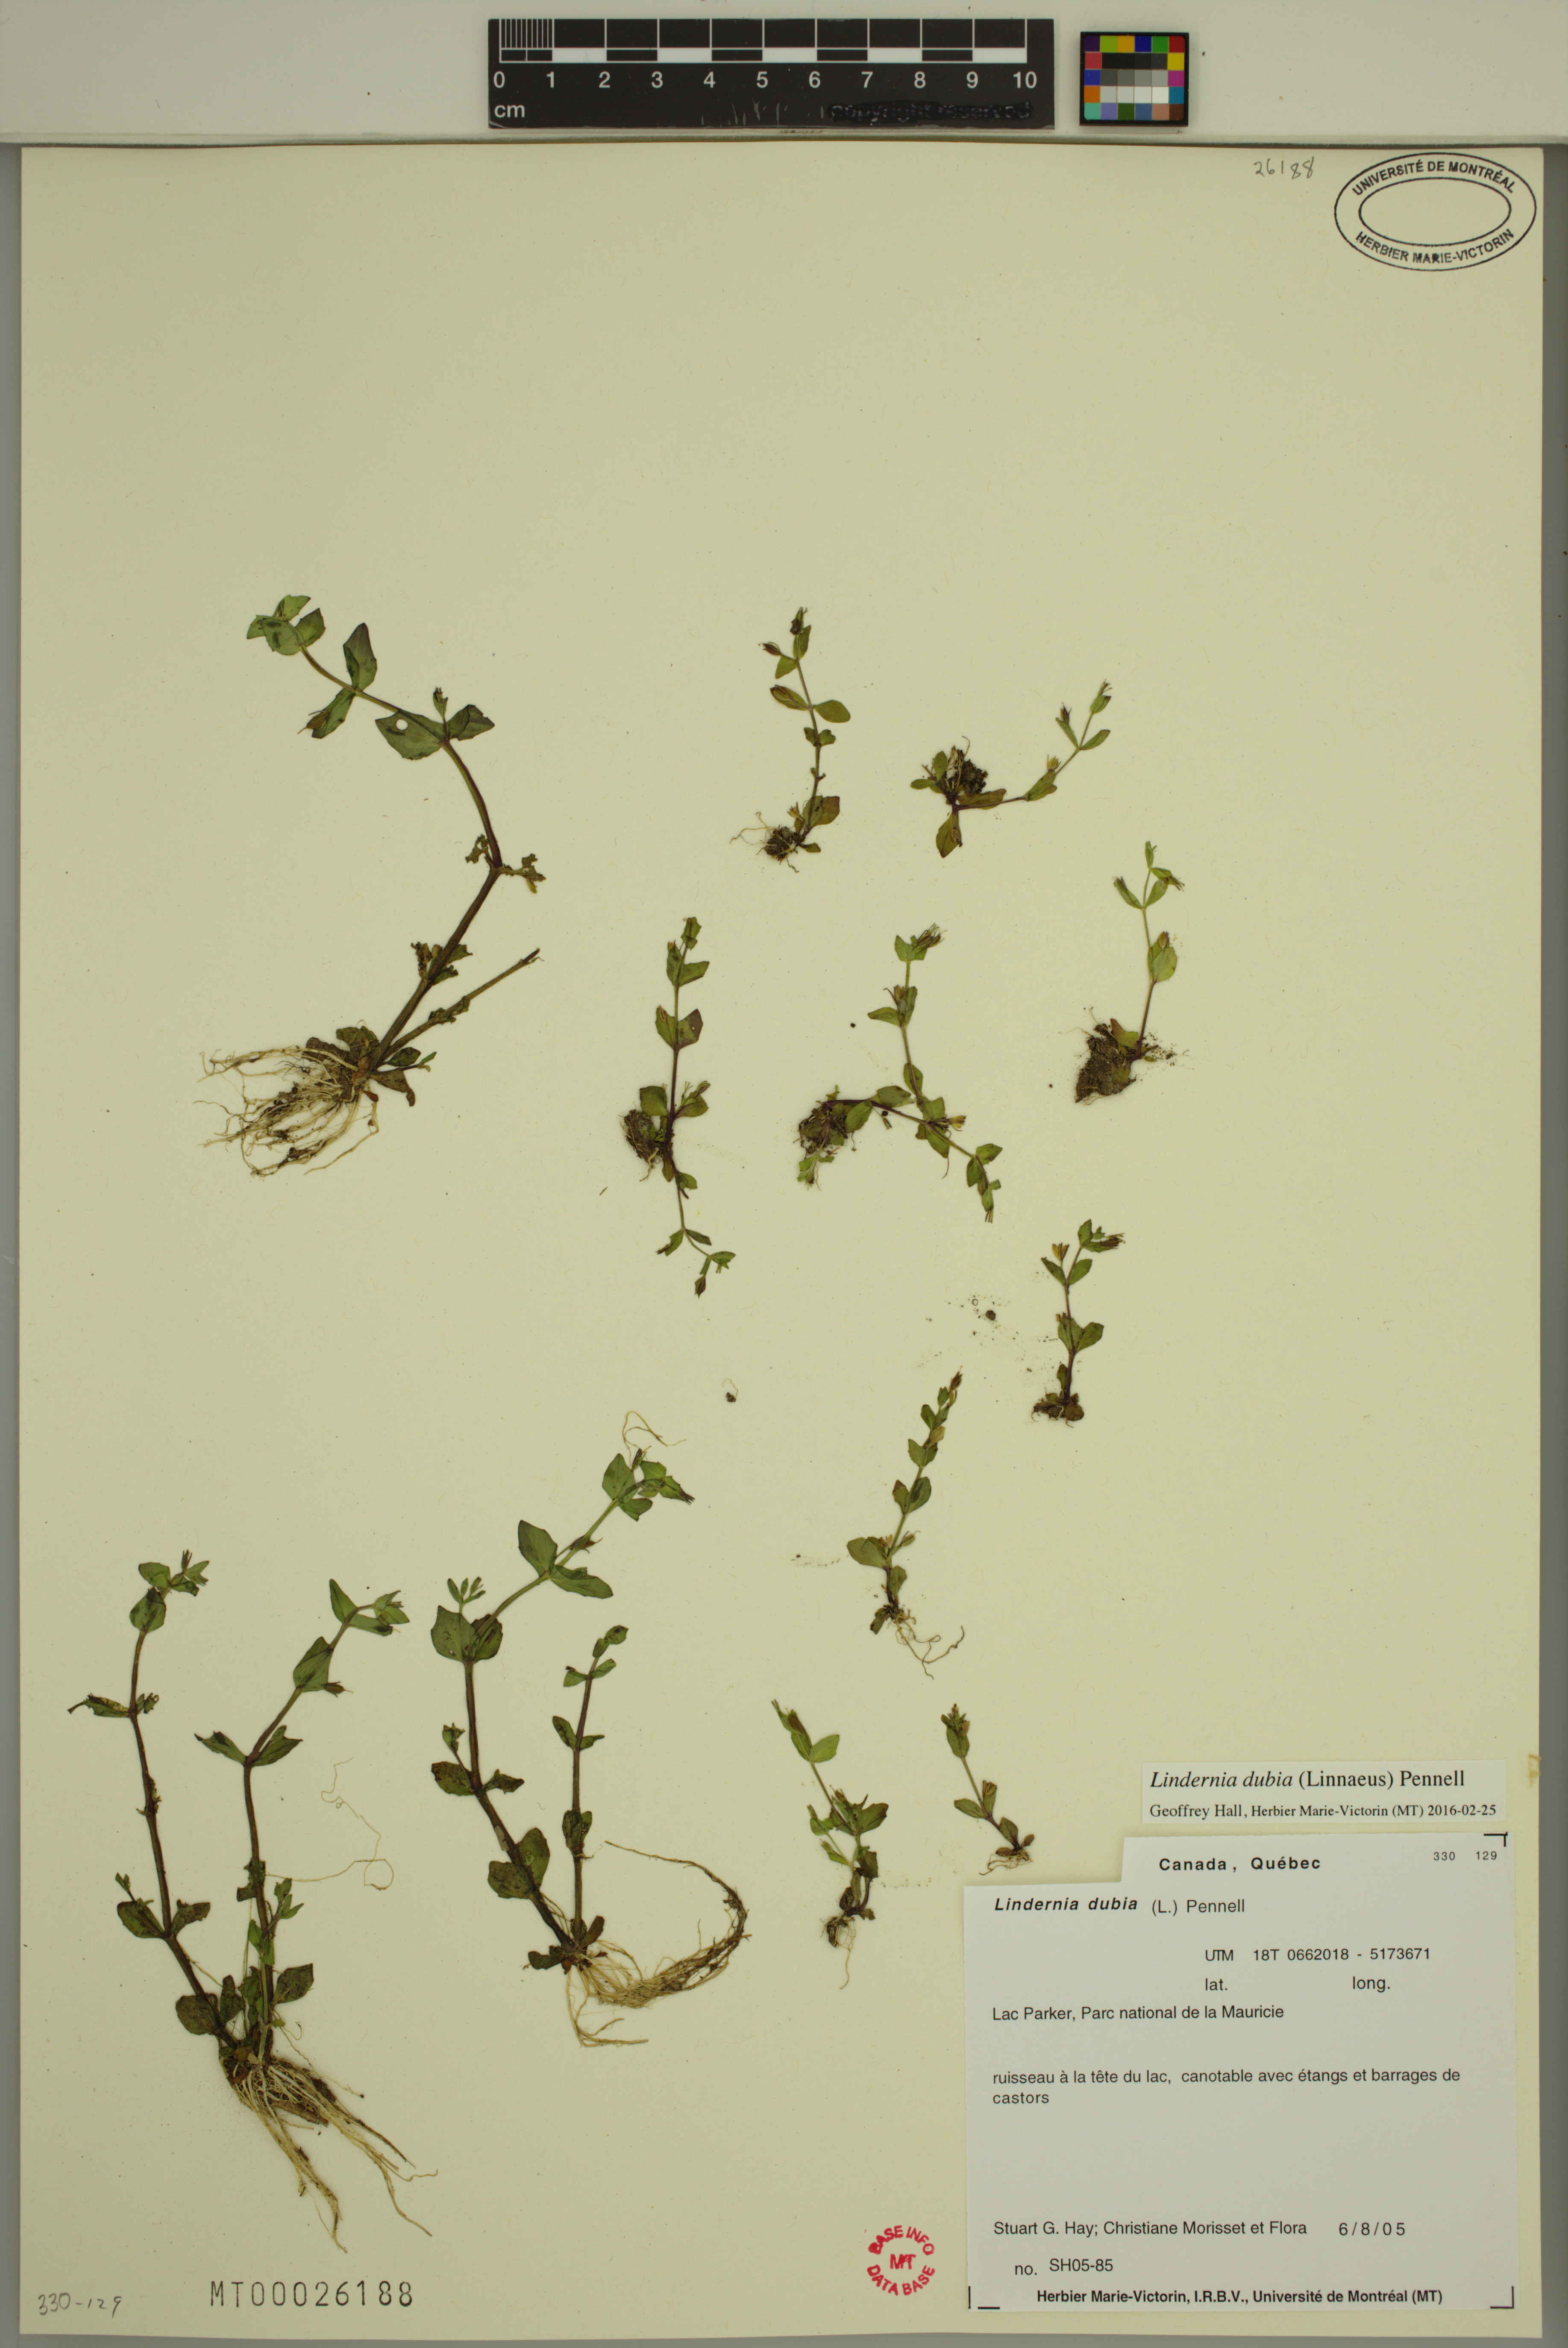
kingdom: Plantae
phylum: Tracheophyta
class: Magnoliopsida
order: Lamiales
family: Linderniaceae
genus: Lindernia
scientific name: Lindernia dubia
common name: Annual false pimpernel
